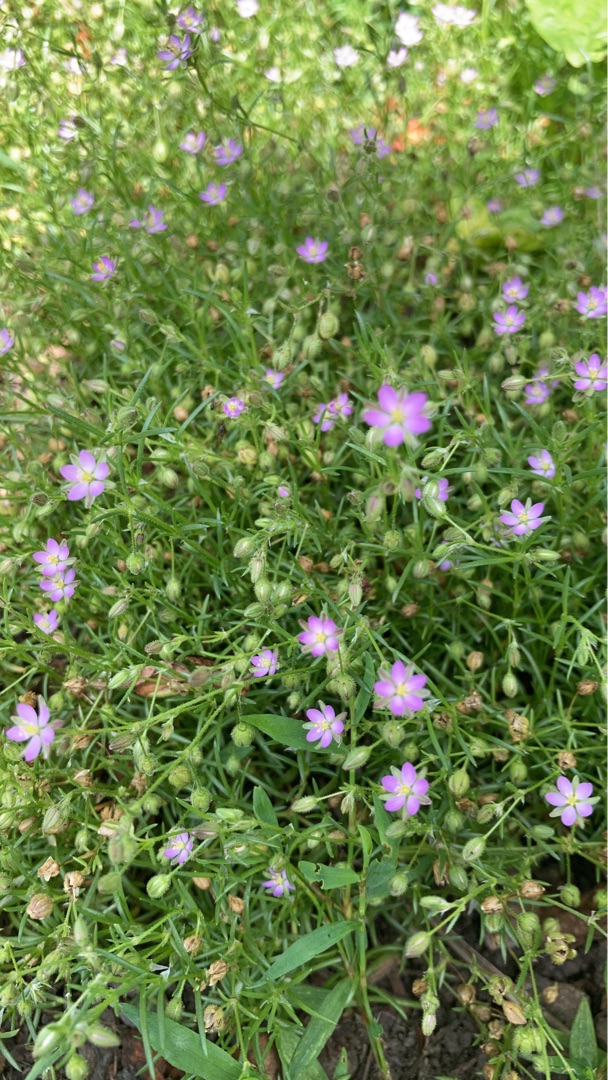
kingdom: Plantae
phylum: Tracheophyta
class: Magnoliopsida
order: Caryophyllales
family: Caryophyllaceae
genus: Spergularia
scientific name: Spergularia marina
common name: Kødet hindeknæ
